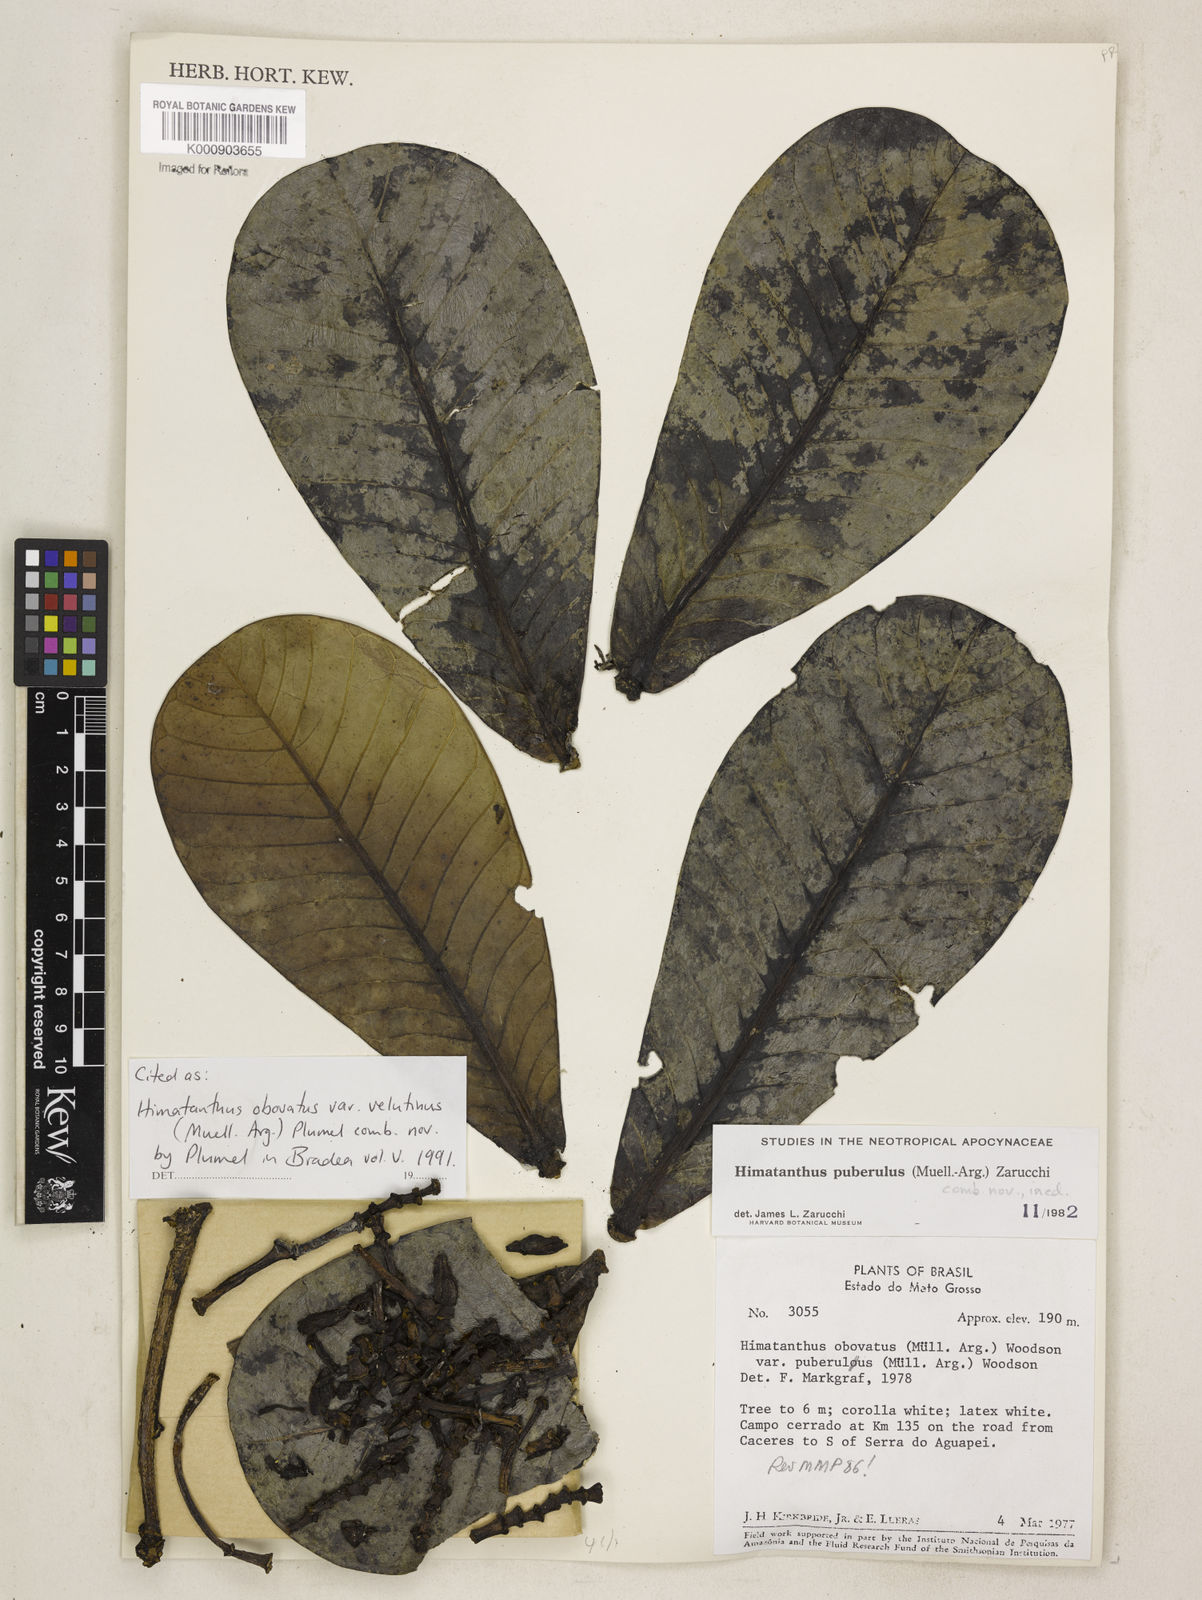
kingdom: Plantae
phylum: Tracheophyta
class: Magnoliopsida
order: Gentianales
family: Apocynaceae
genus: Himatanthus
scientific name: Himatanthus
